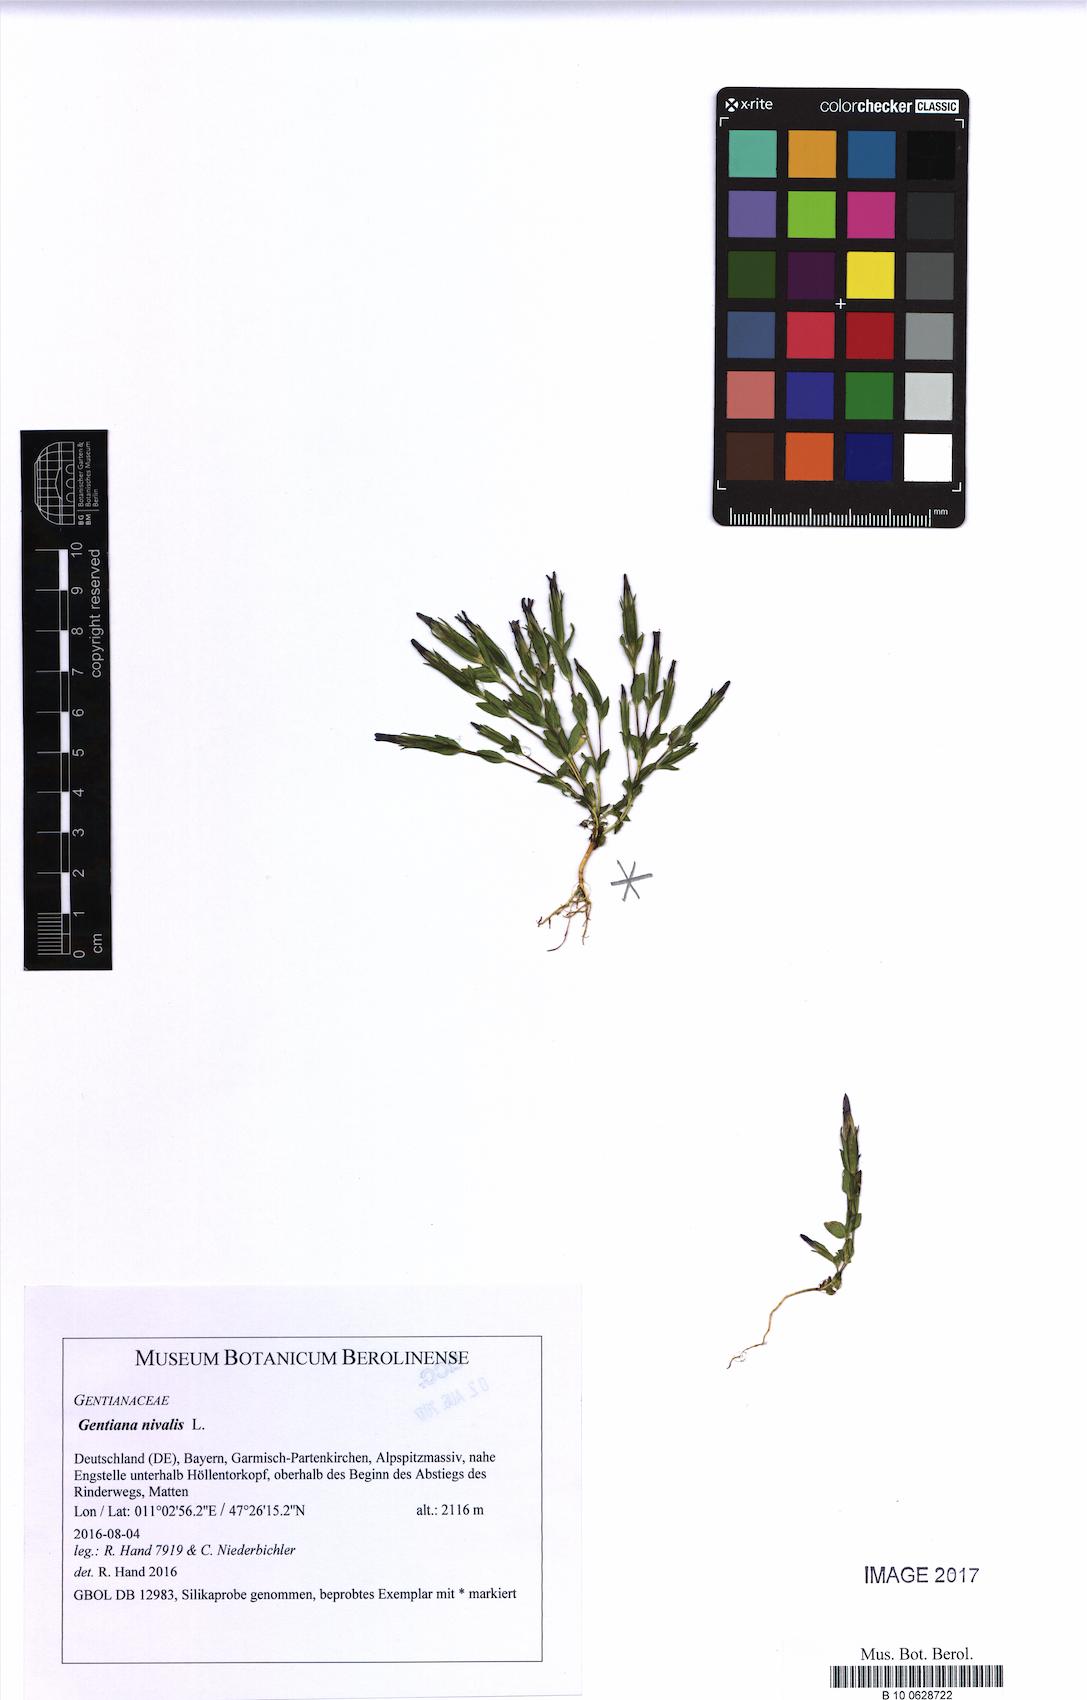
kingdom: Plantae
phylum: Tracheophyta
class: Magnoliopsida
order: Gentianales
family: Gentianaceae
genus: Gentiana
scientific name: Gentiana nivalis
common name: Alpine gentian
